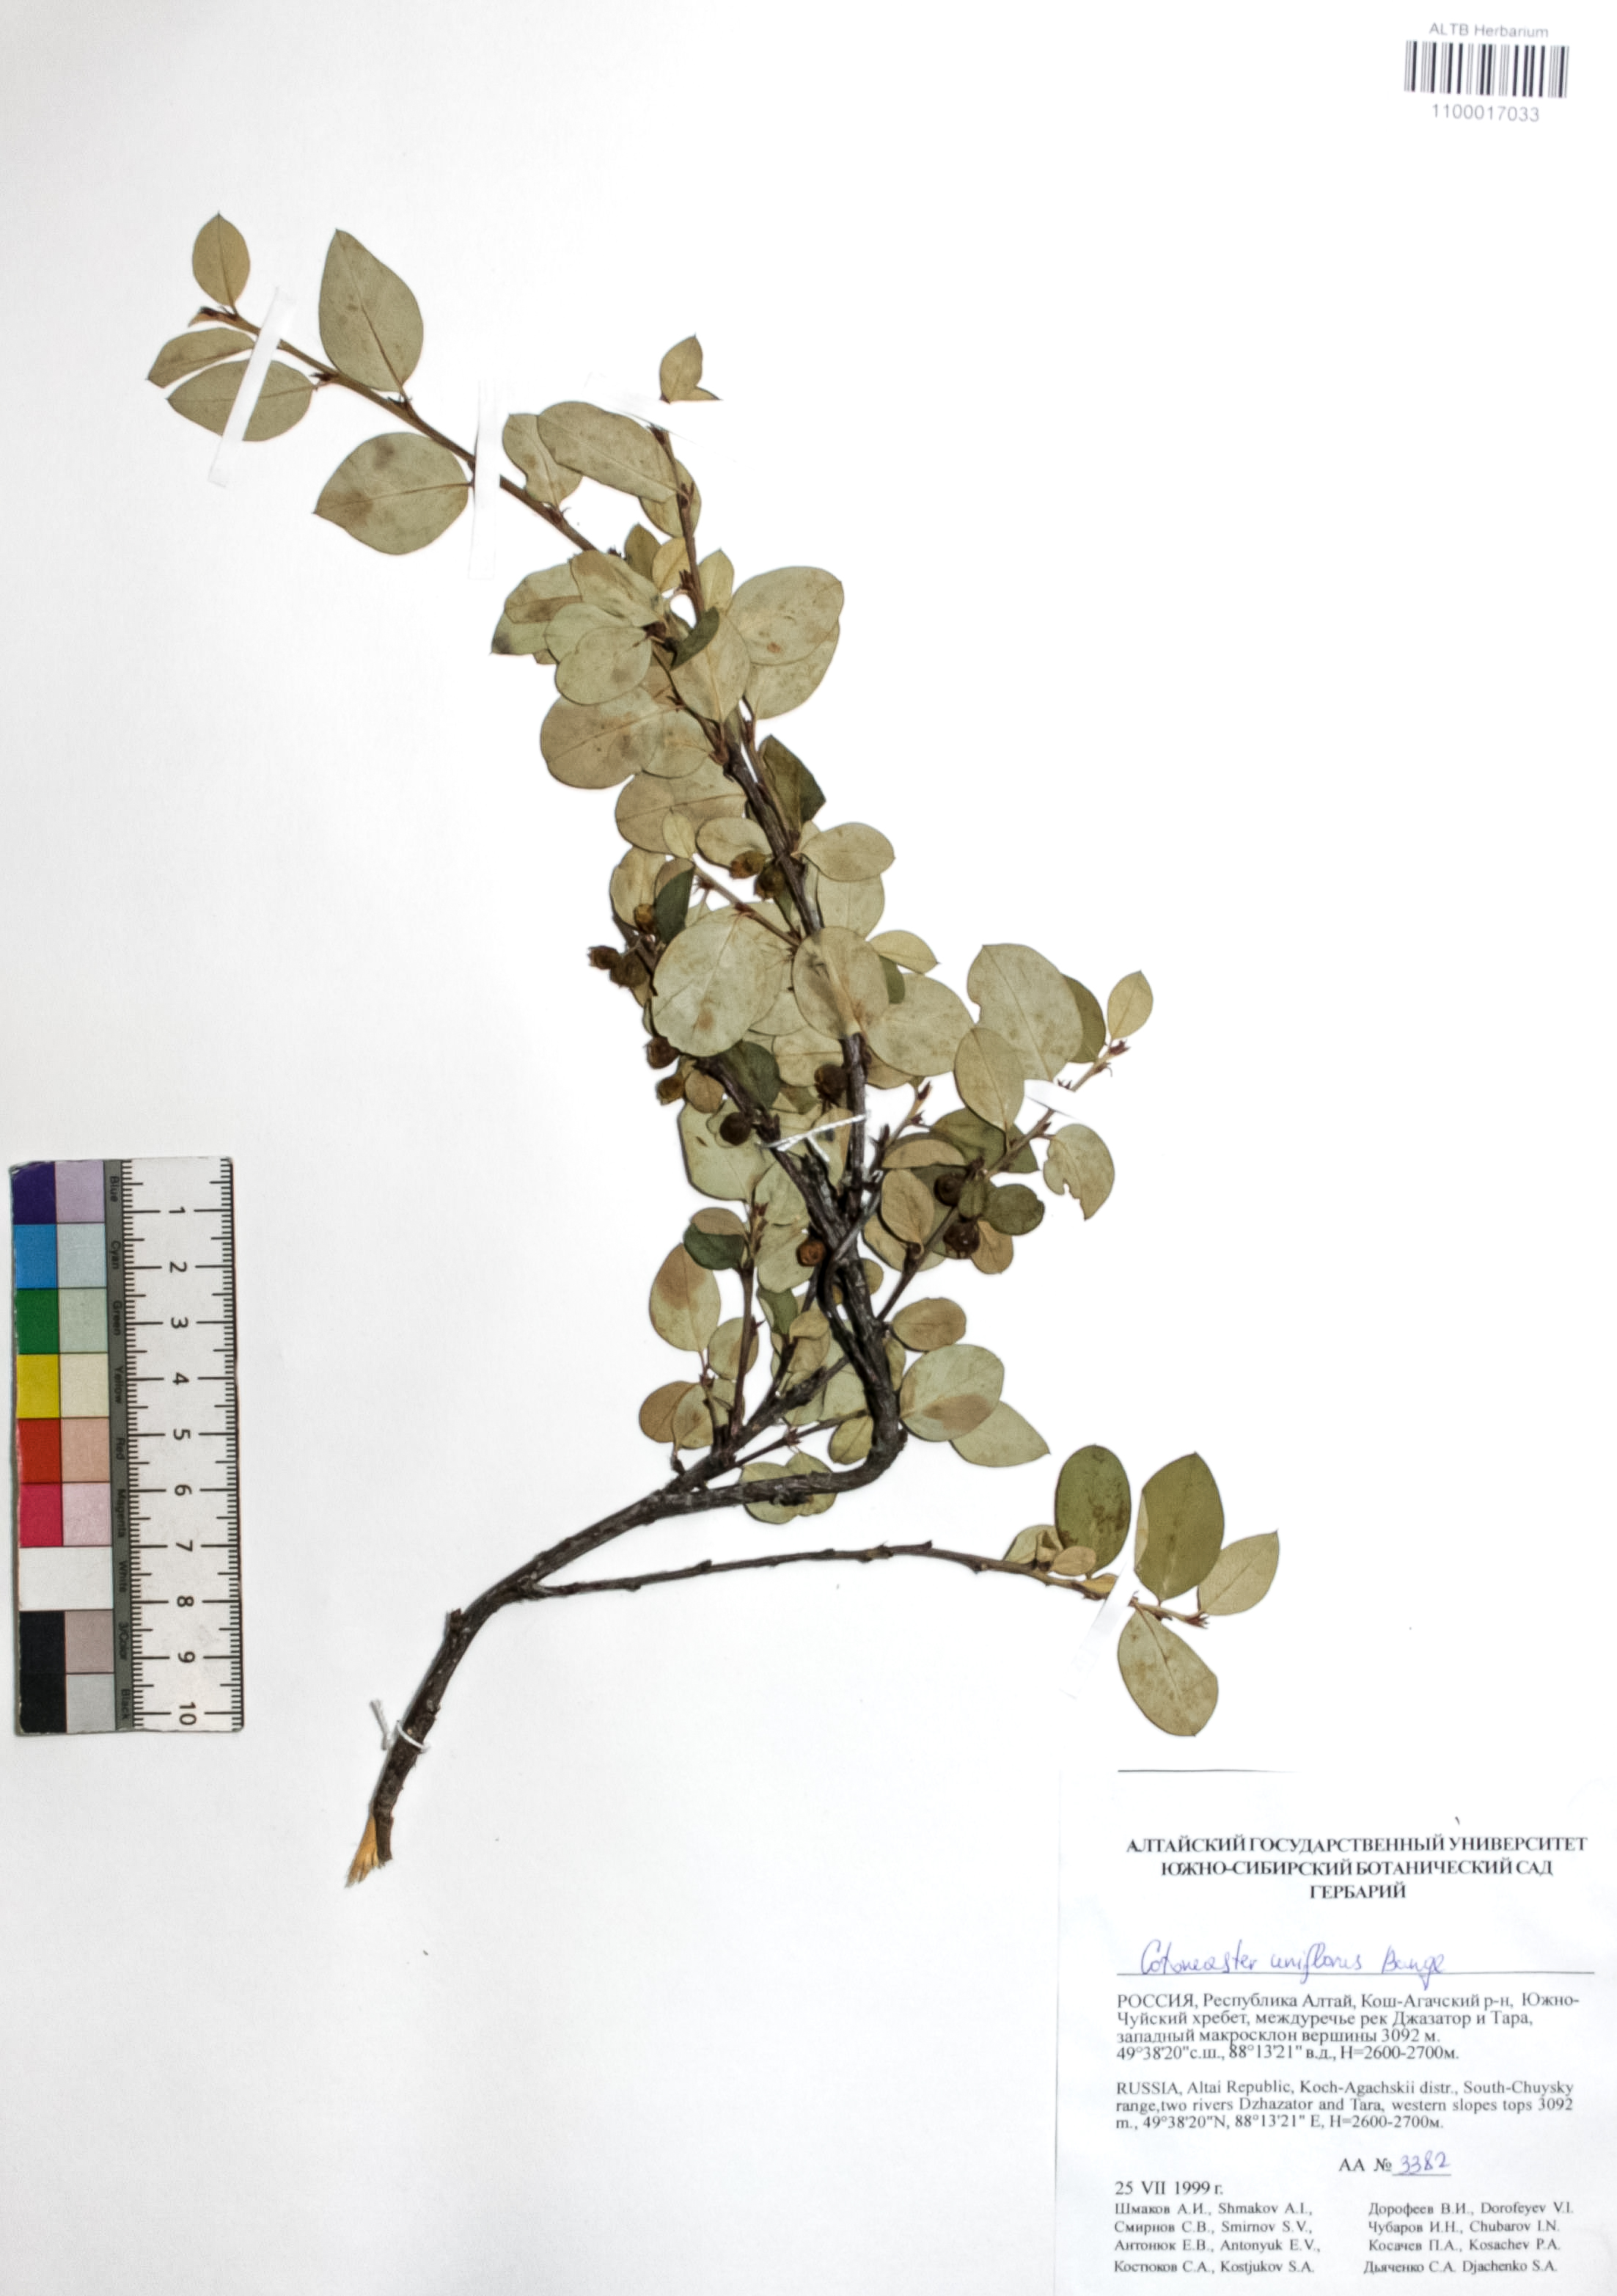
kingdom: Plantae
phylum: Tracheophyta
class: Magnoliopsida
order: Rosales
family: Rosaceae
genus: Cotoneaster
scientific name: Cotoneaster uniflorus
